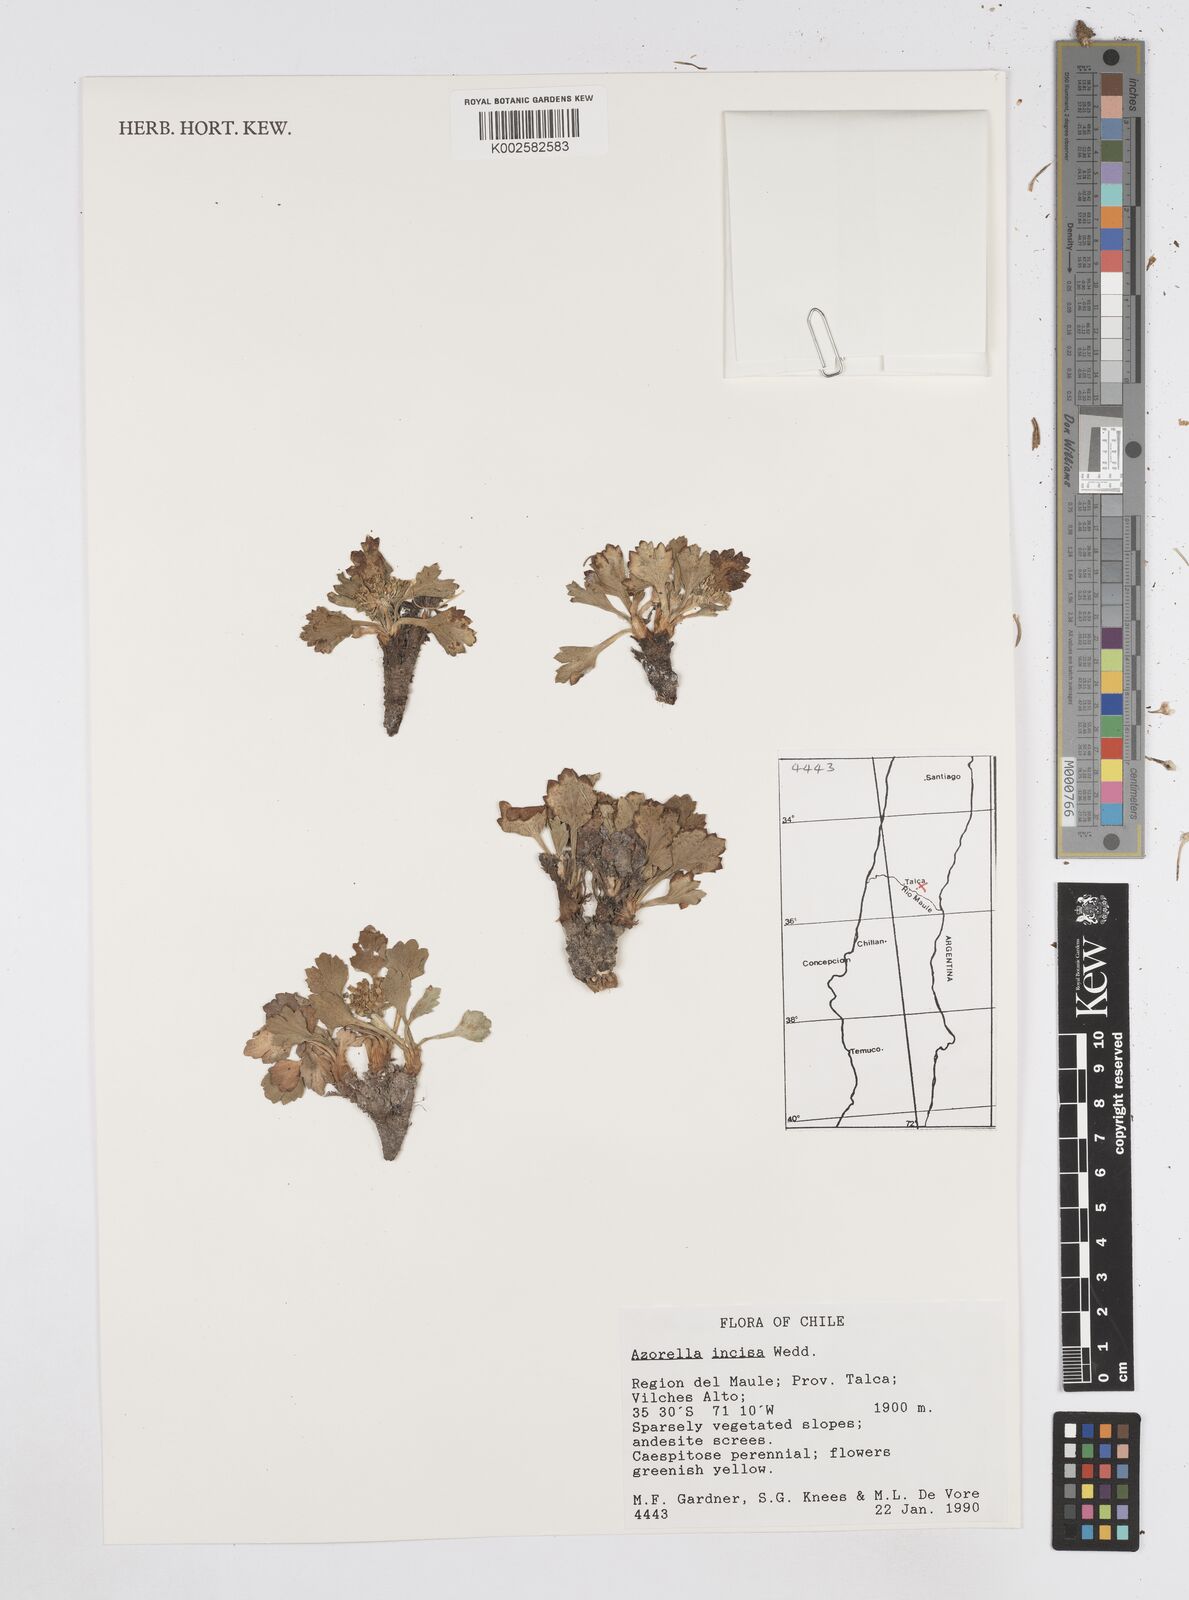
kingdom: Plantae
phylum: Tracheophyta
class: Magnoliopsida
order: Apiales
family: Apiaceae
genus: Azorella
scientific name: Azorella diversifolia
